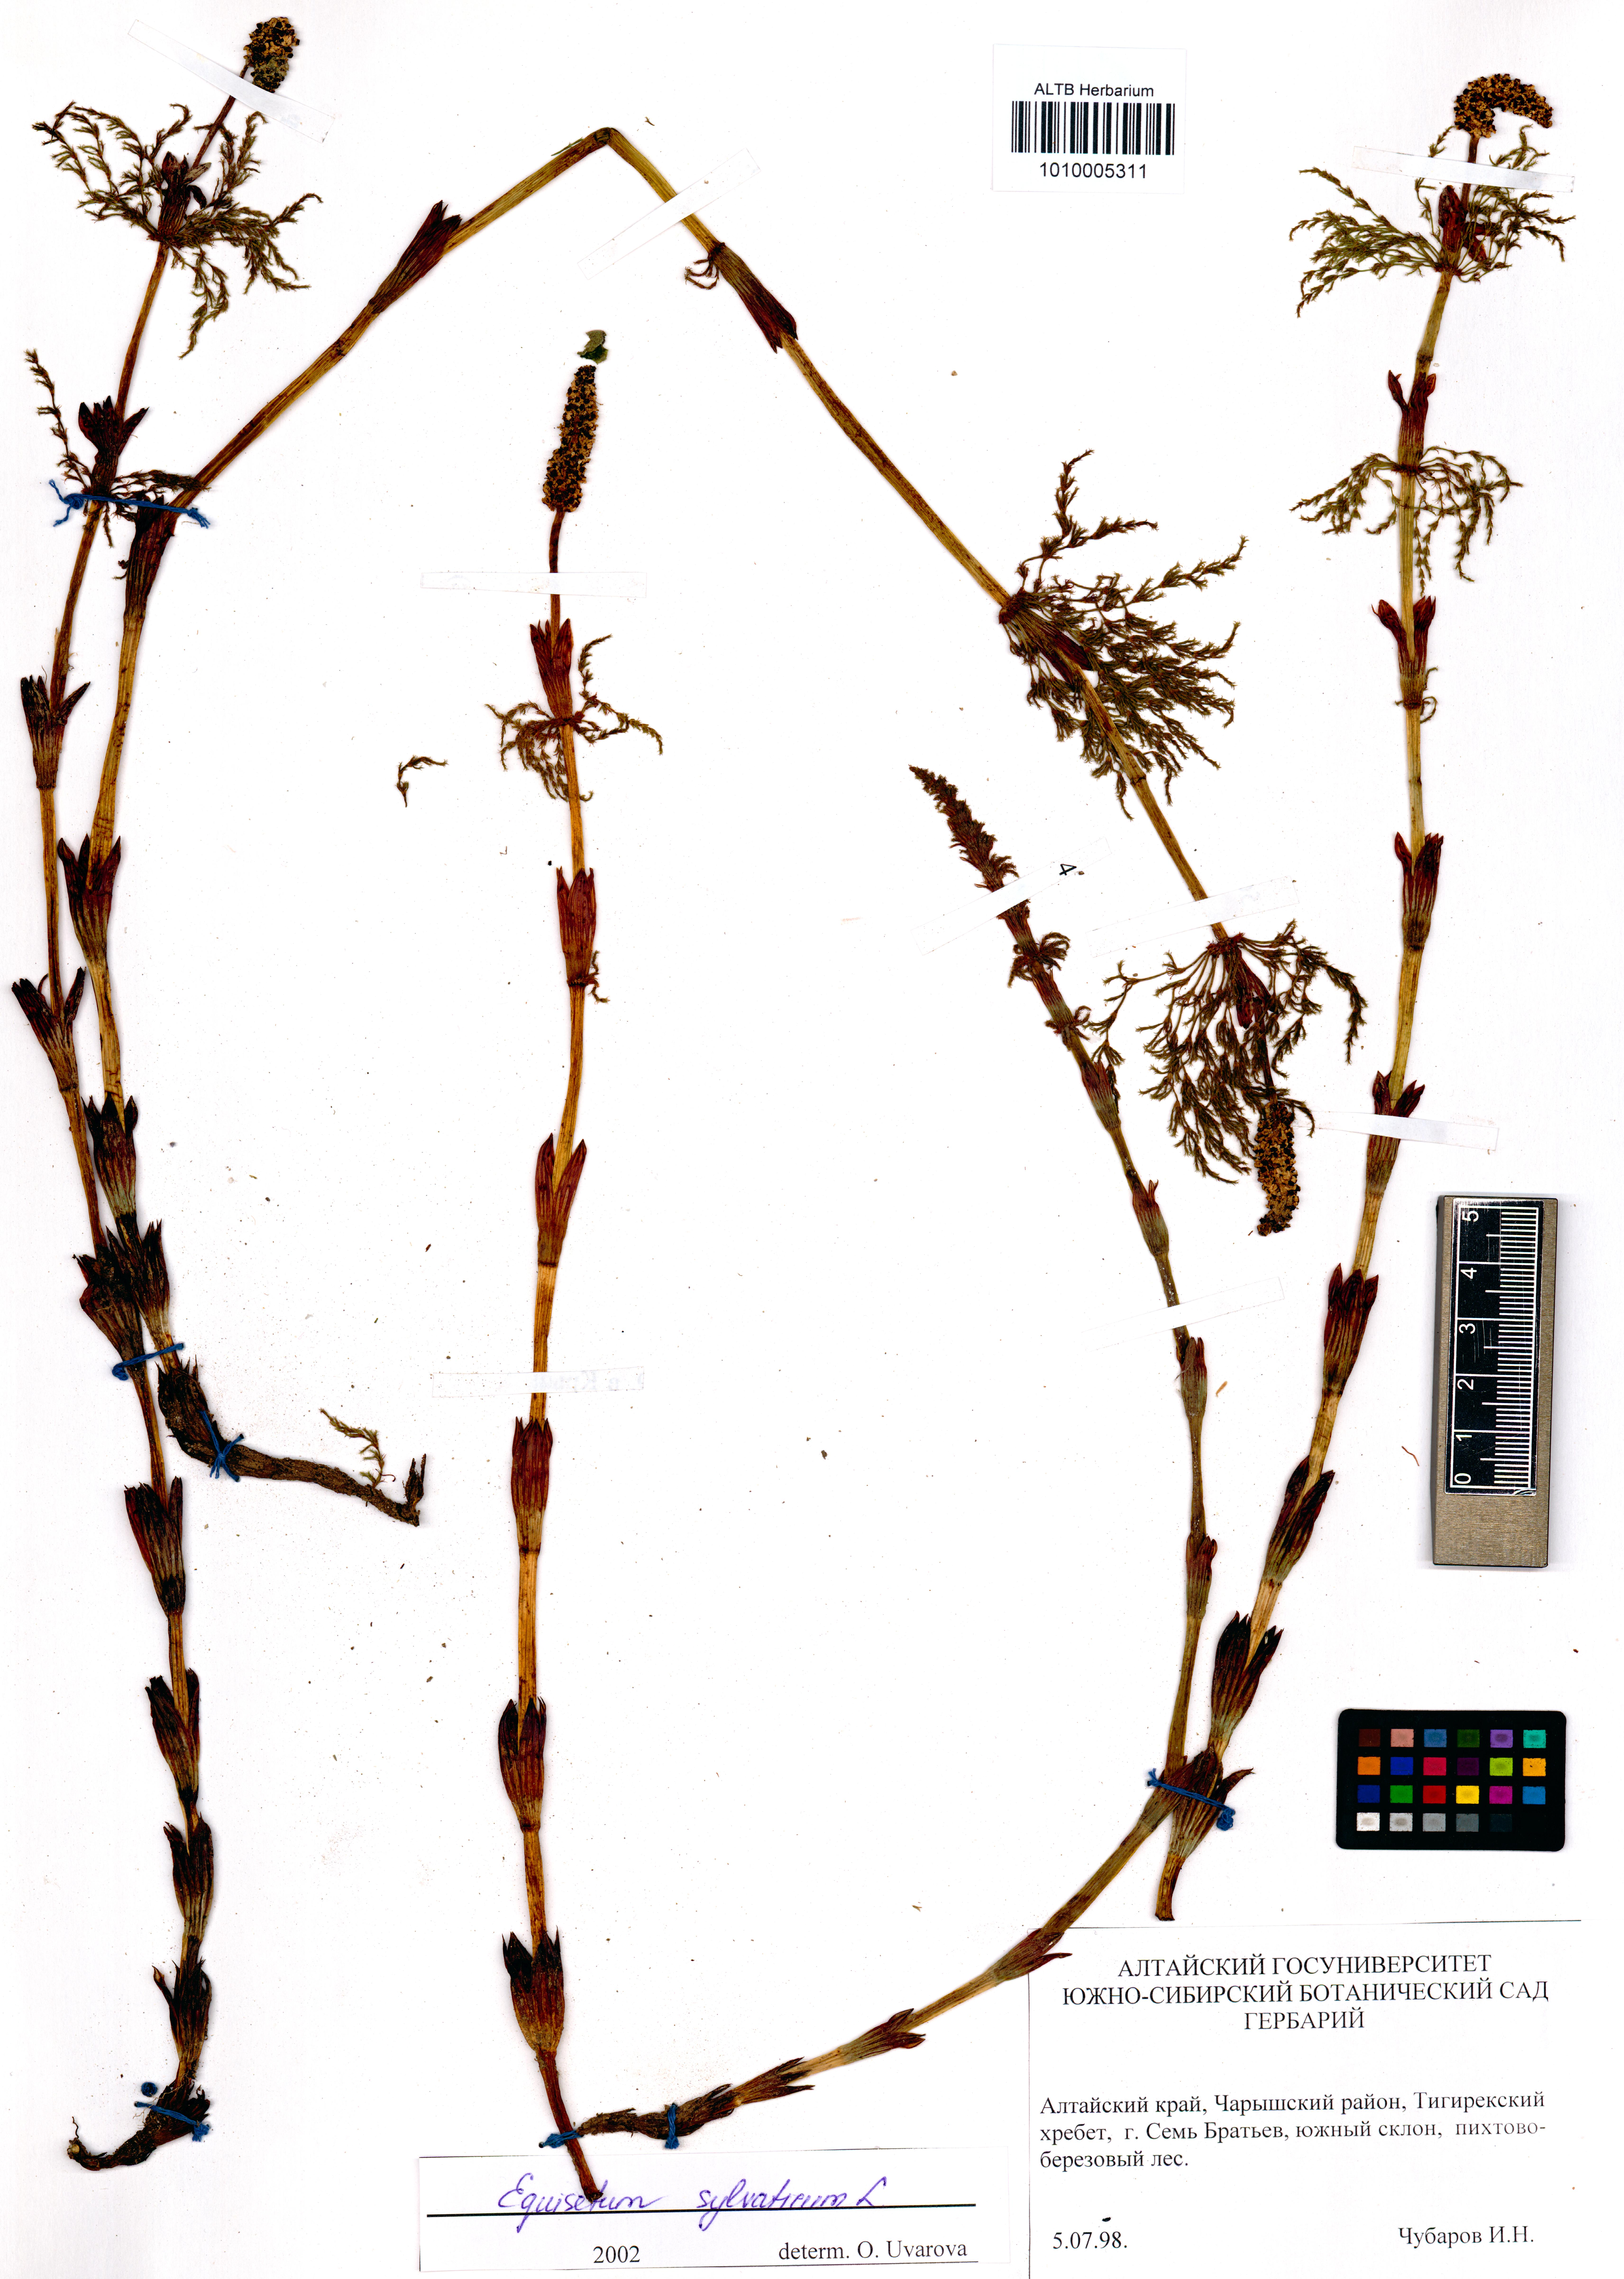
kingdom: Plantae
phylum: Tracheophyta
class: Polypodiopsida
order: Equisetales
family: Equisetaceae
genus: Equisetum
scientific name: Equisetum sylvaticum
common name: Wood horsetail
